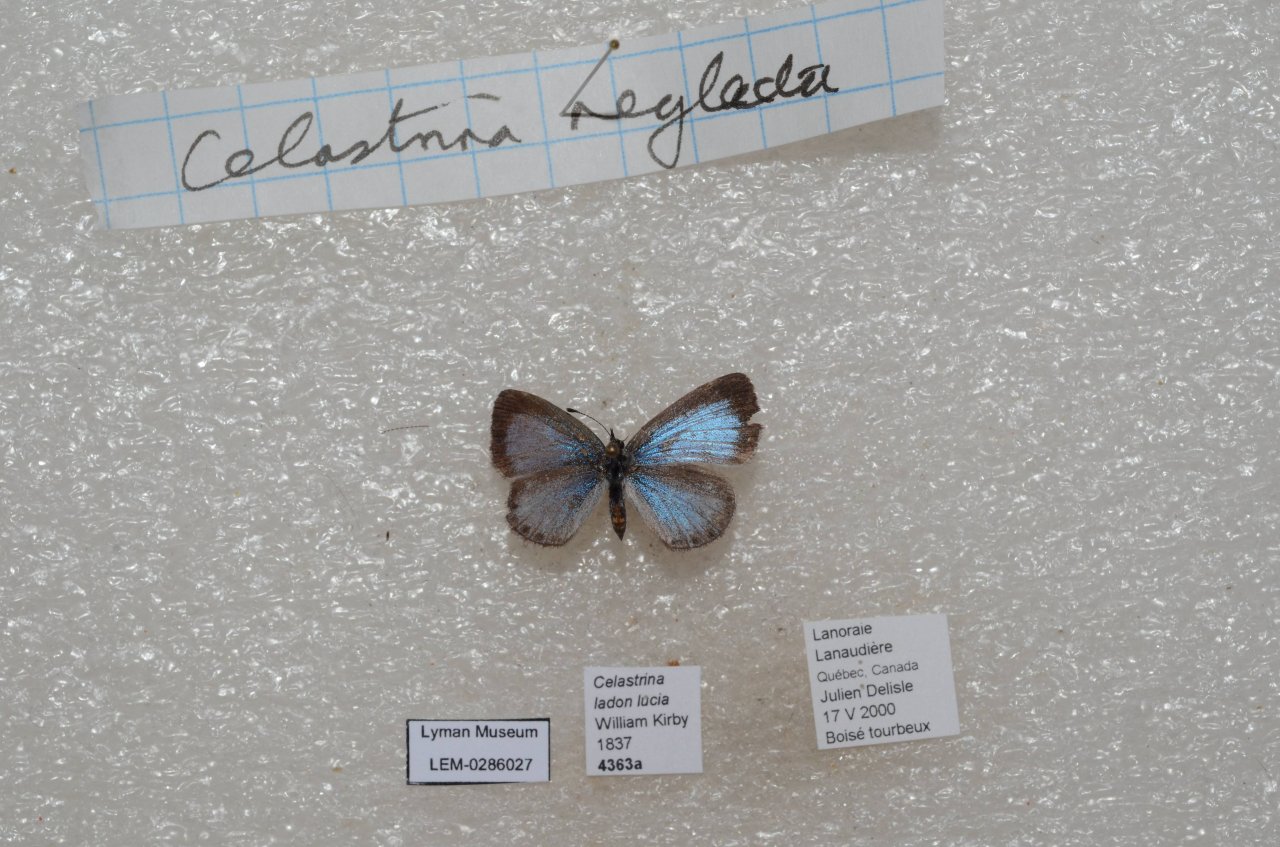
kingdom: Animalia
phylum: Arthropoda
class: Insecta
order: Lepidoptera
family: Lycaenidae
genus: Celastrina
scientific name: Celastrina lucia
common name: Northern Spring Azure
